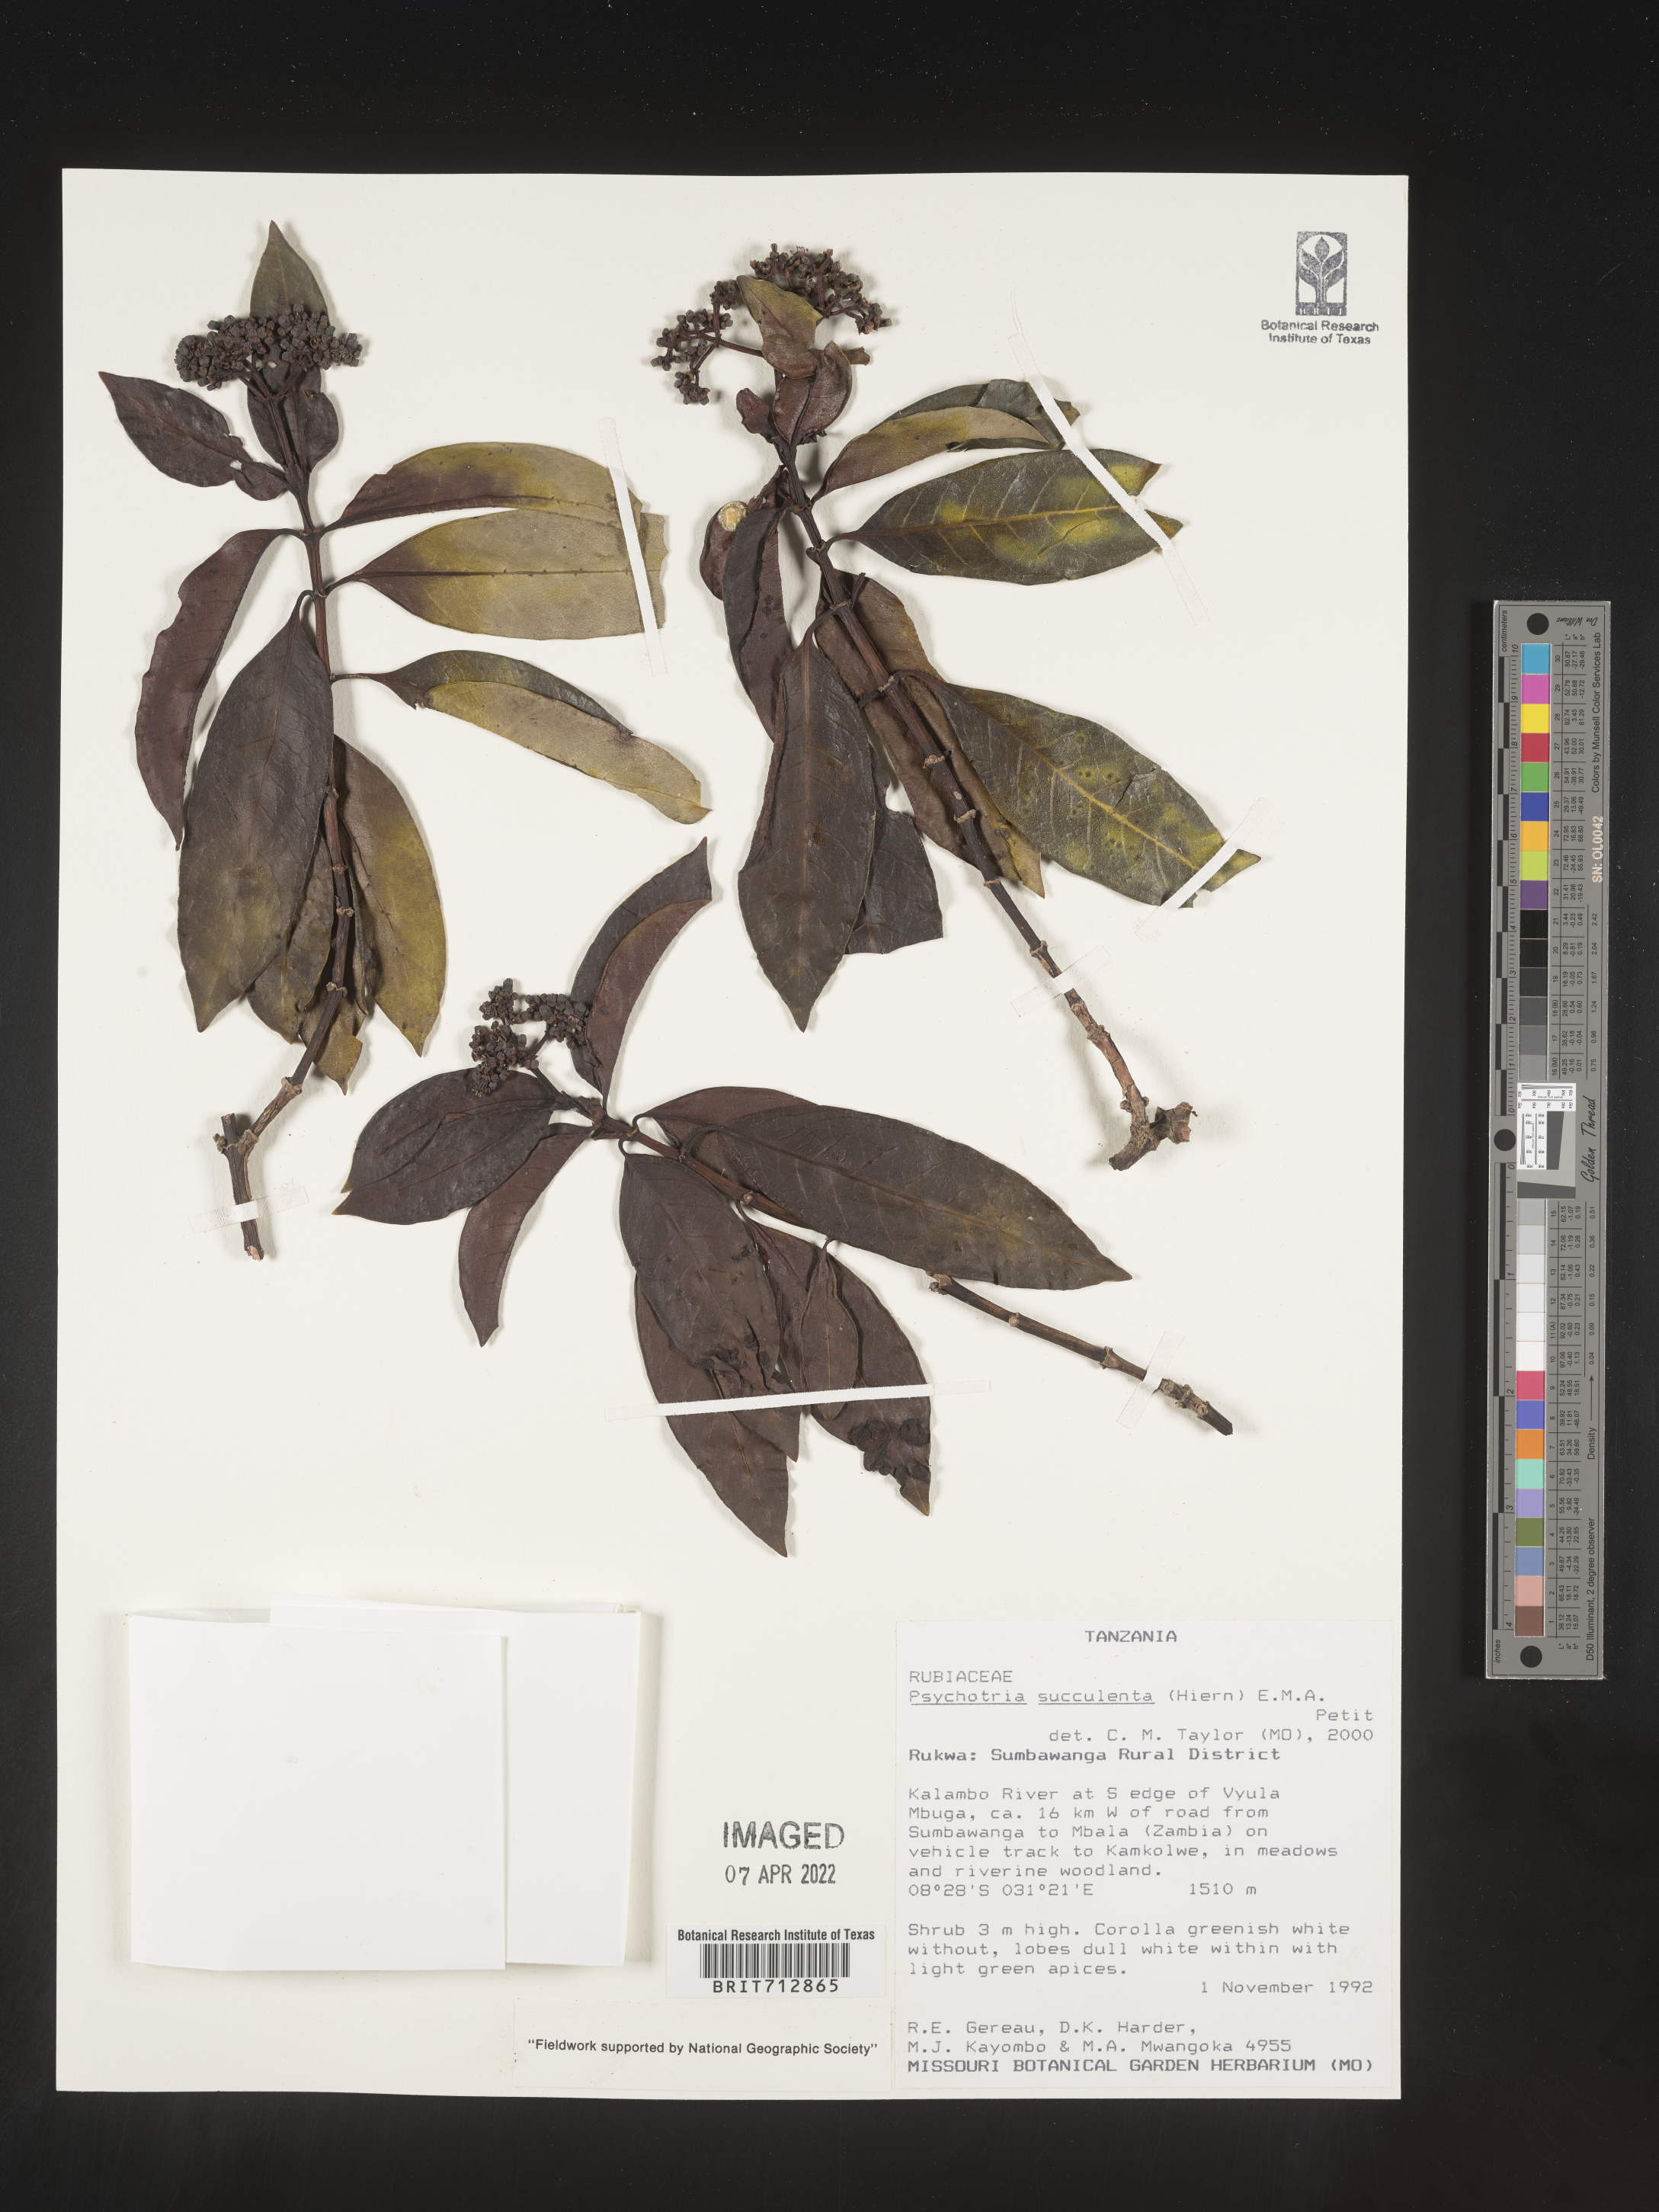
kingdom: Plantae
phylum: Tracheophyta
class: Magnoliopsida
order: Gentianales
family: Rubiaceae
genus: Psychotria
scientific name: Psychotria
